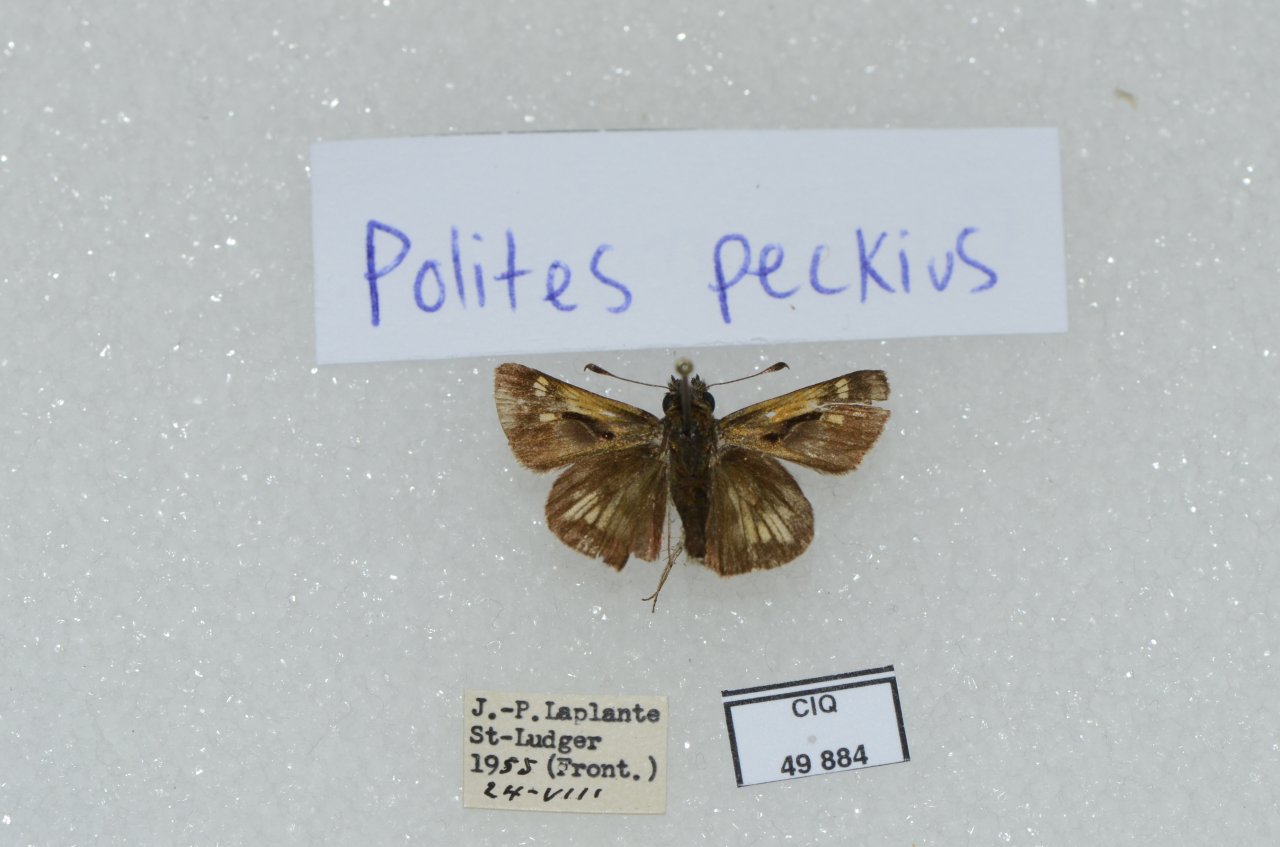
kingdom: Animalia
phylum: Arthropoda
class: Insecta
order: Lepidoptera
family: Hesperiidae
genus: Polites
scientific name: Polites coras
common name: Peck's Skipper
